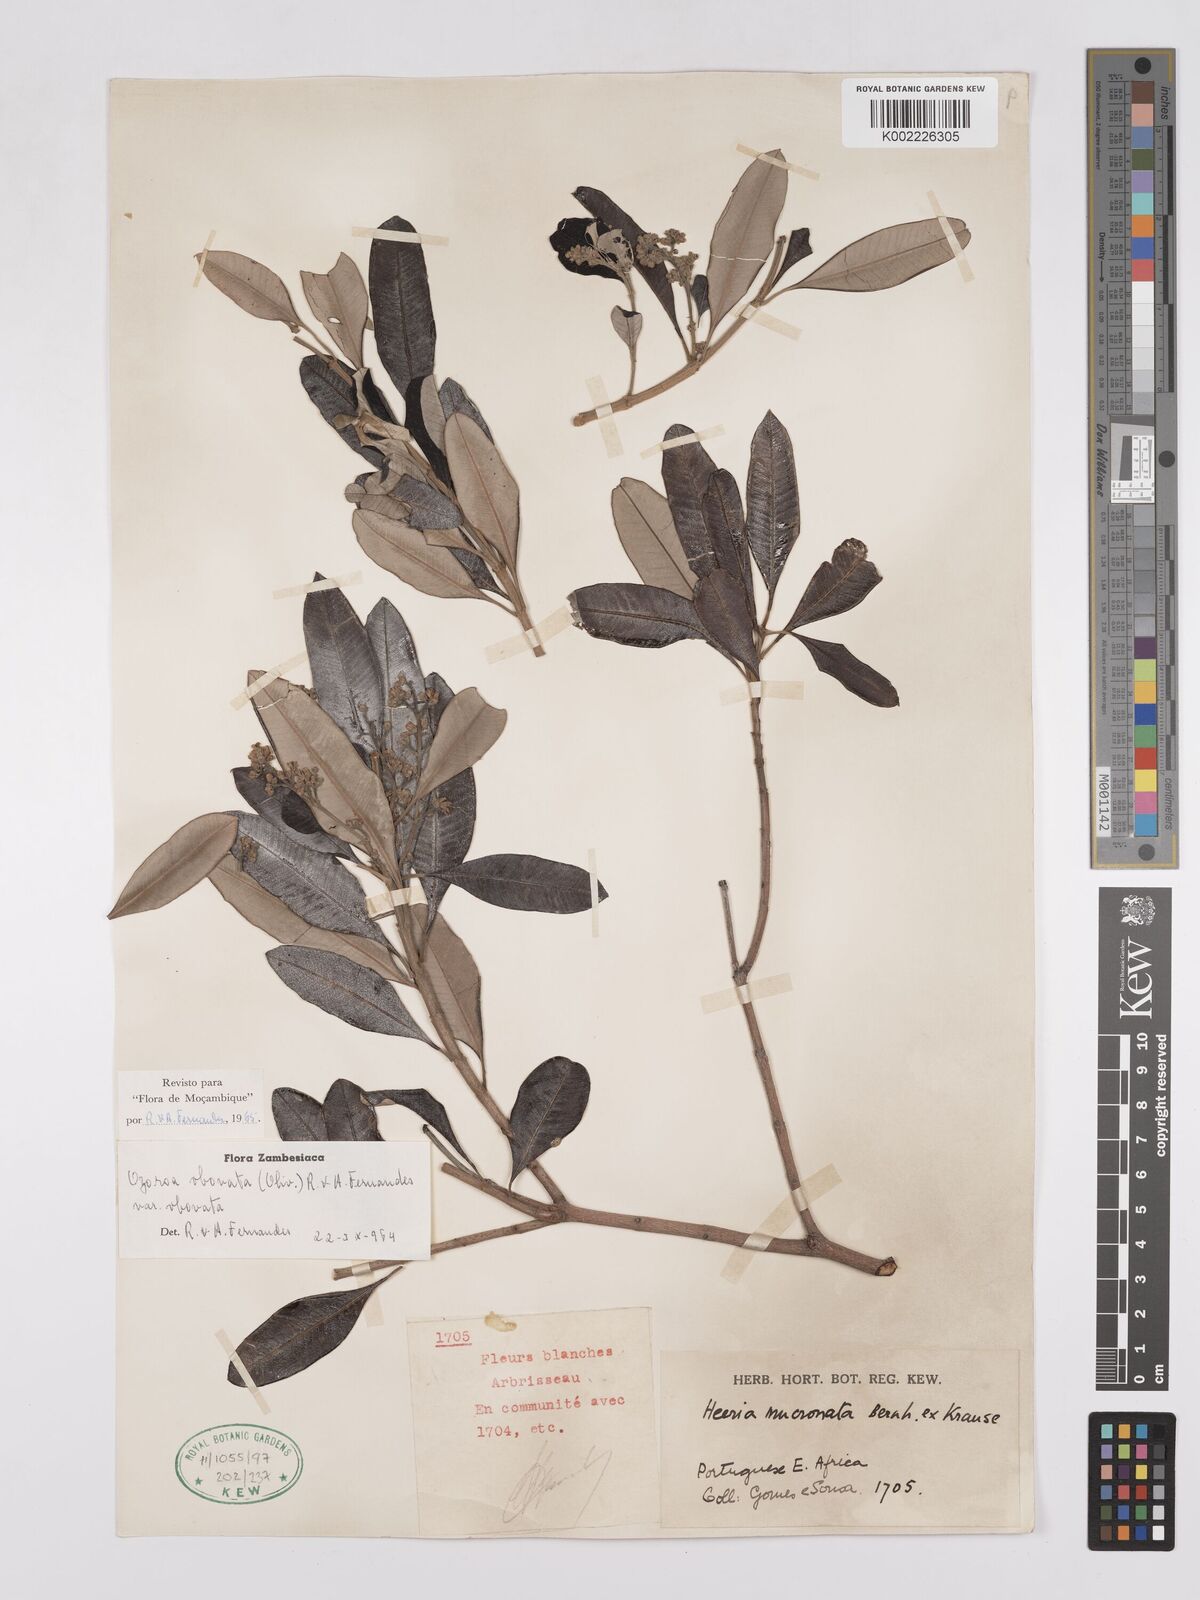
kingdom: Plantae
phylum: Tracheophyta
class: Magnoliopsida
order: Sapindales
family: Anacardiaceae
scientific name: Anacardiaceae
